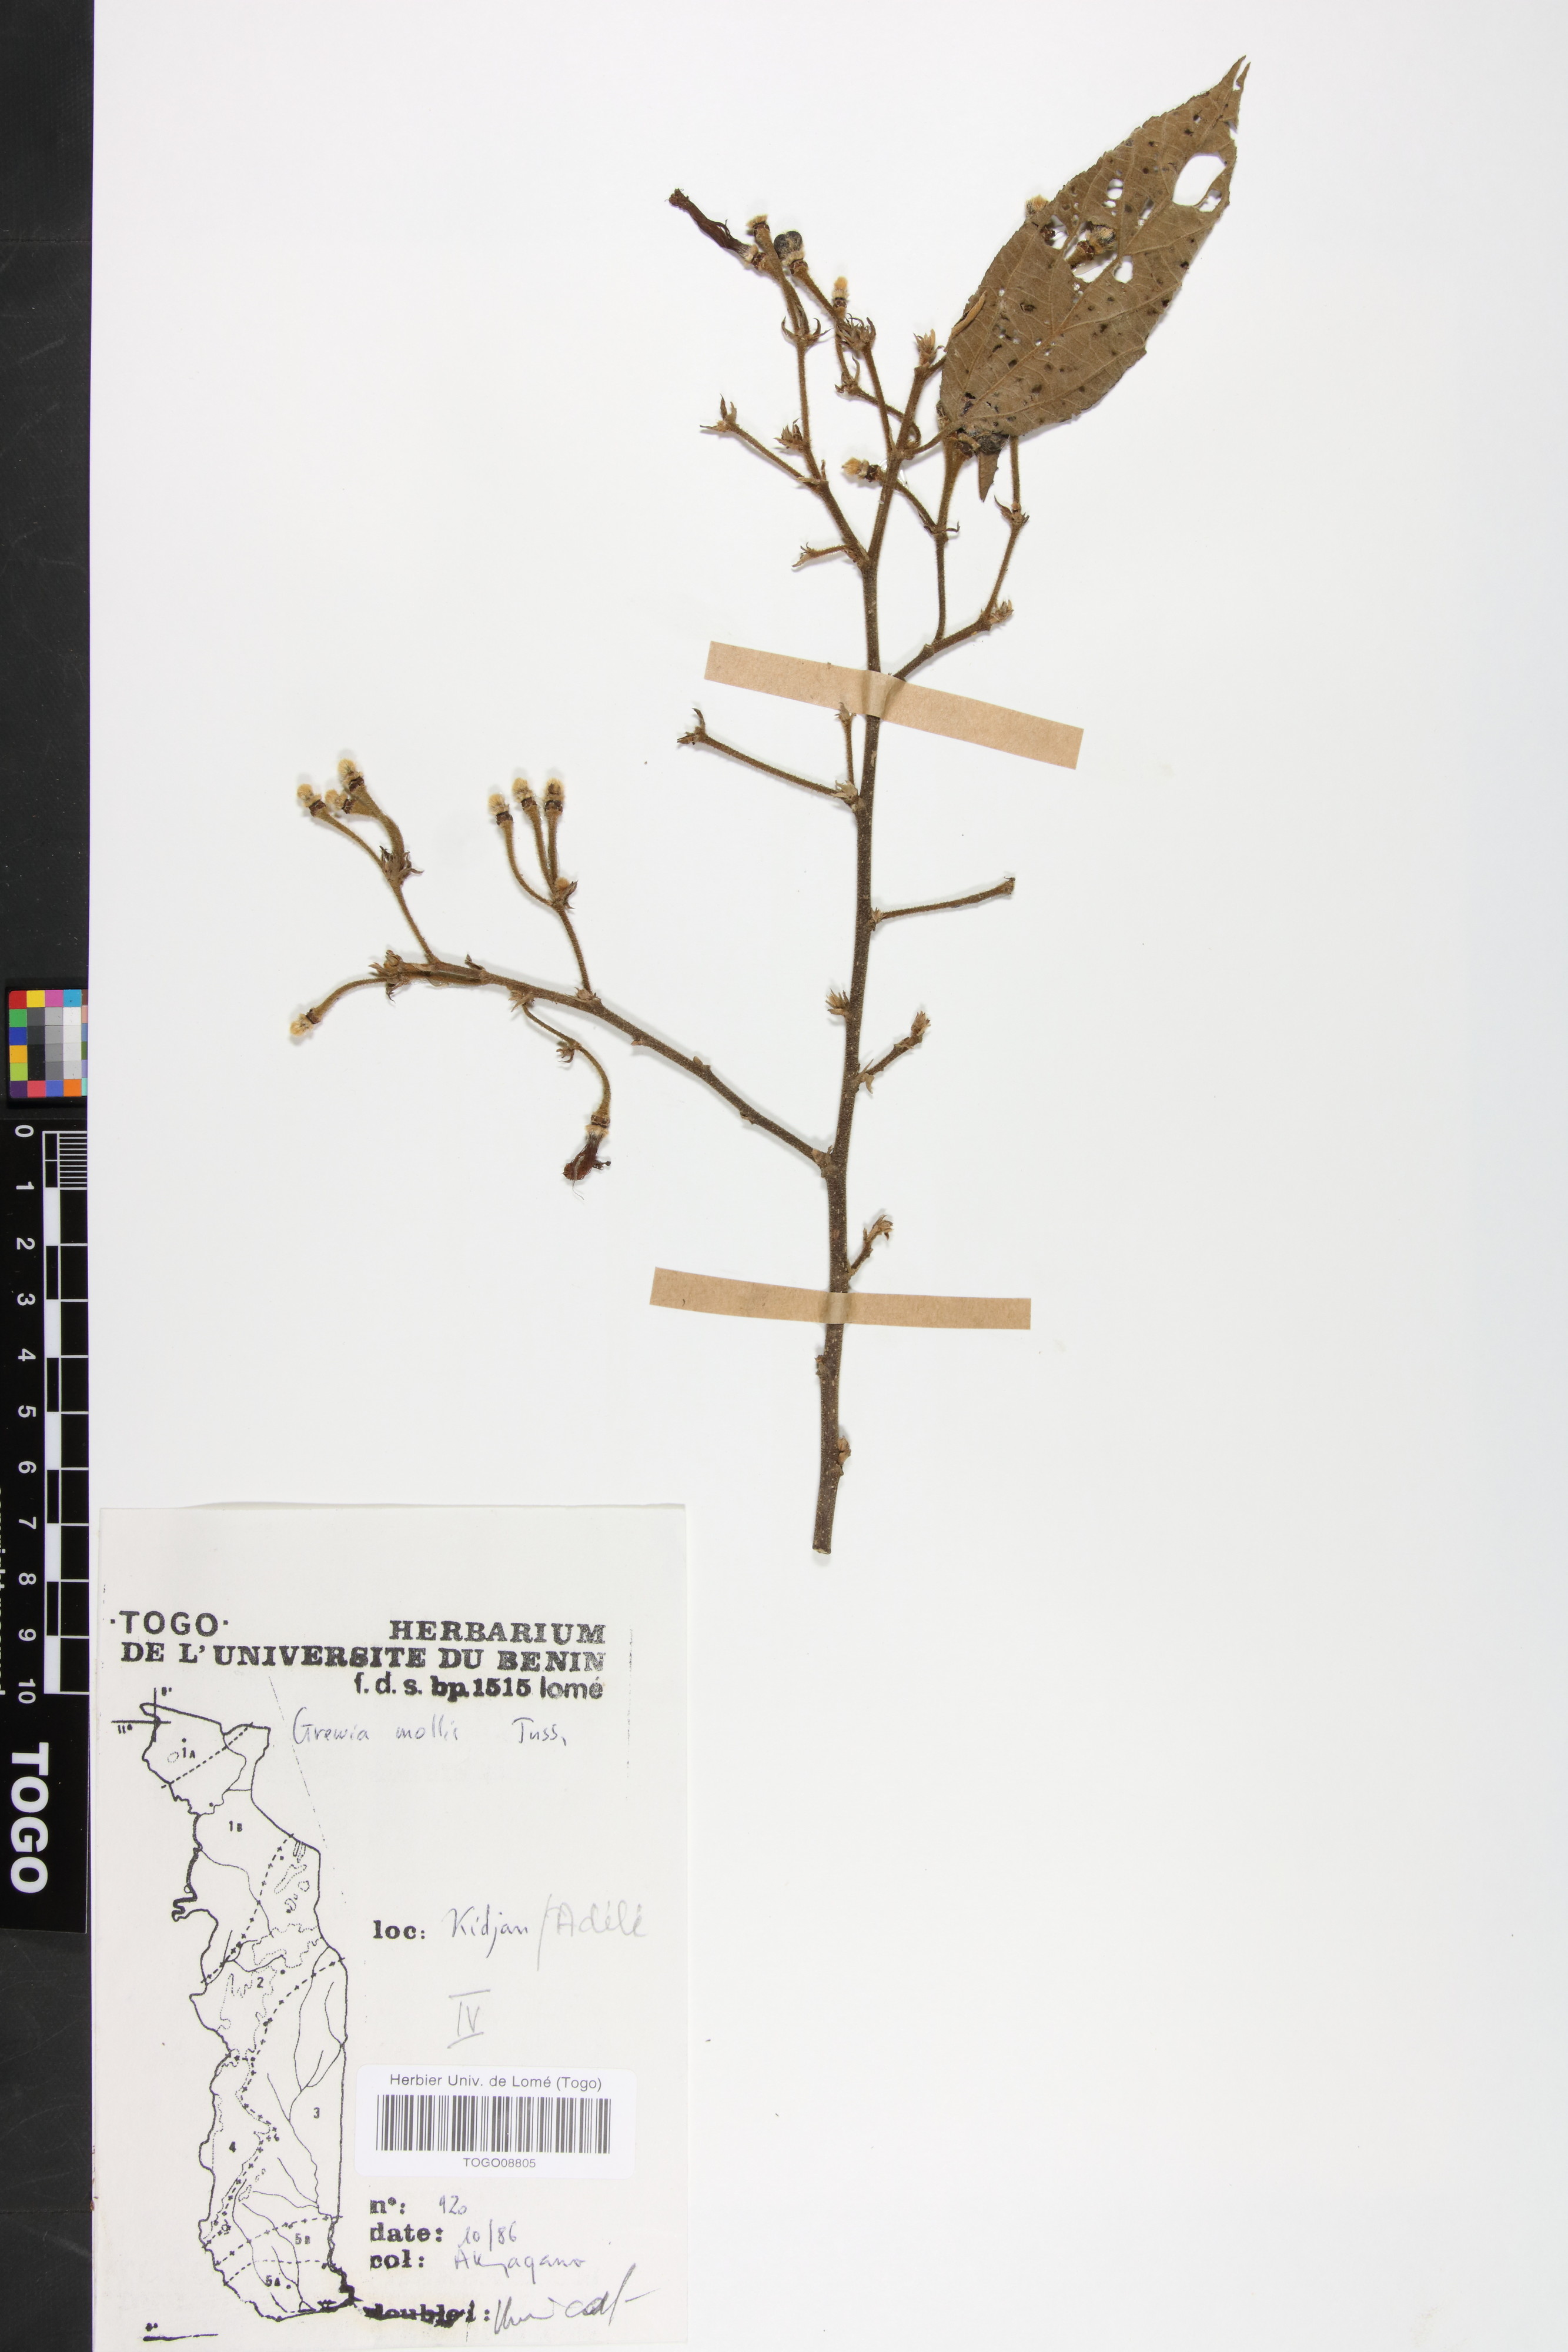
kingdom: Plantae
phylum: Tracheophyta
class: Magnoliopsida
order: Malvales
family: Malvaceae
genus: Grewia
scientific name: Grewia mollis
